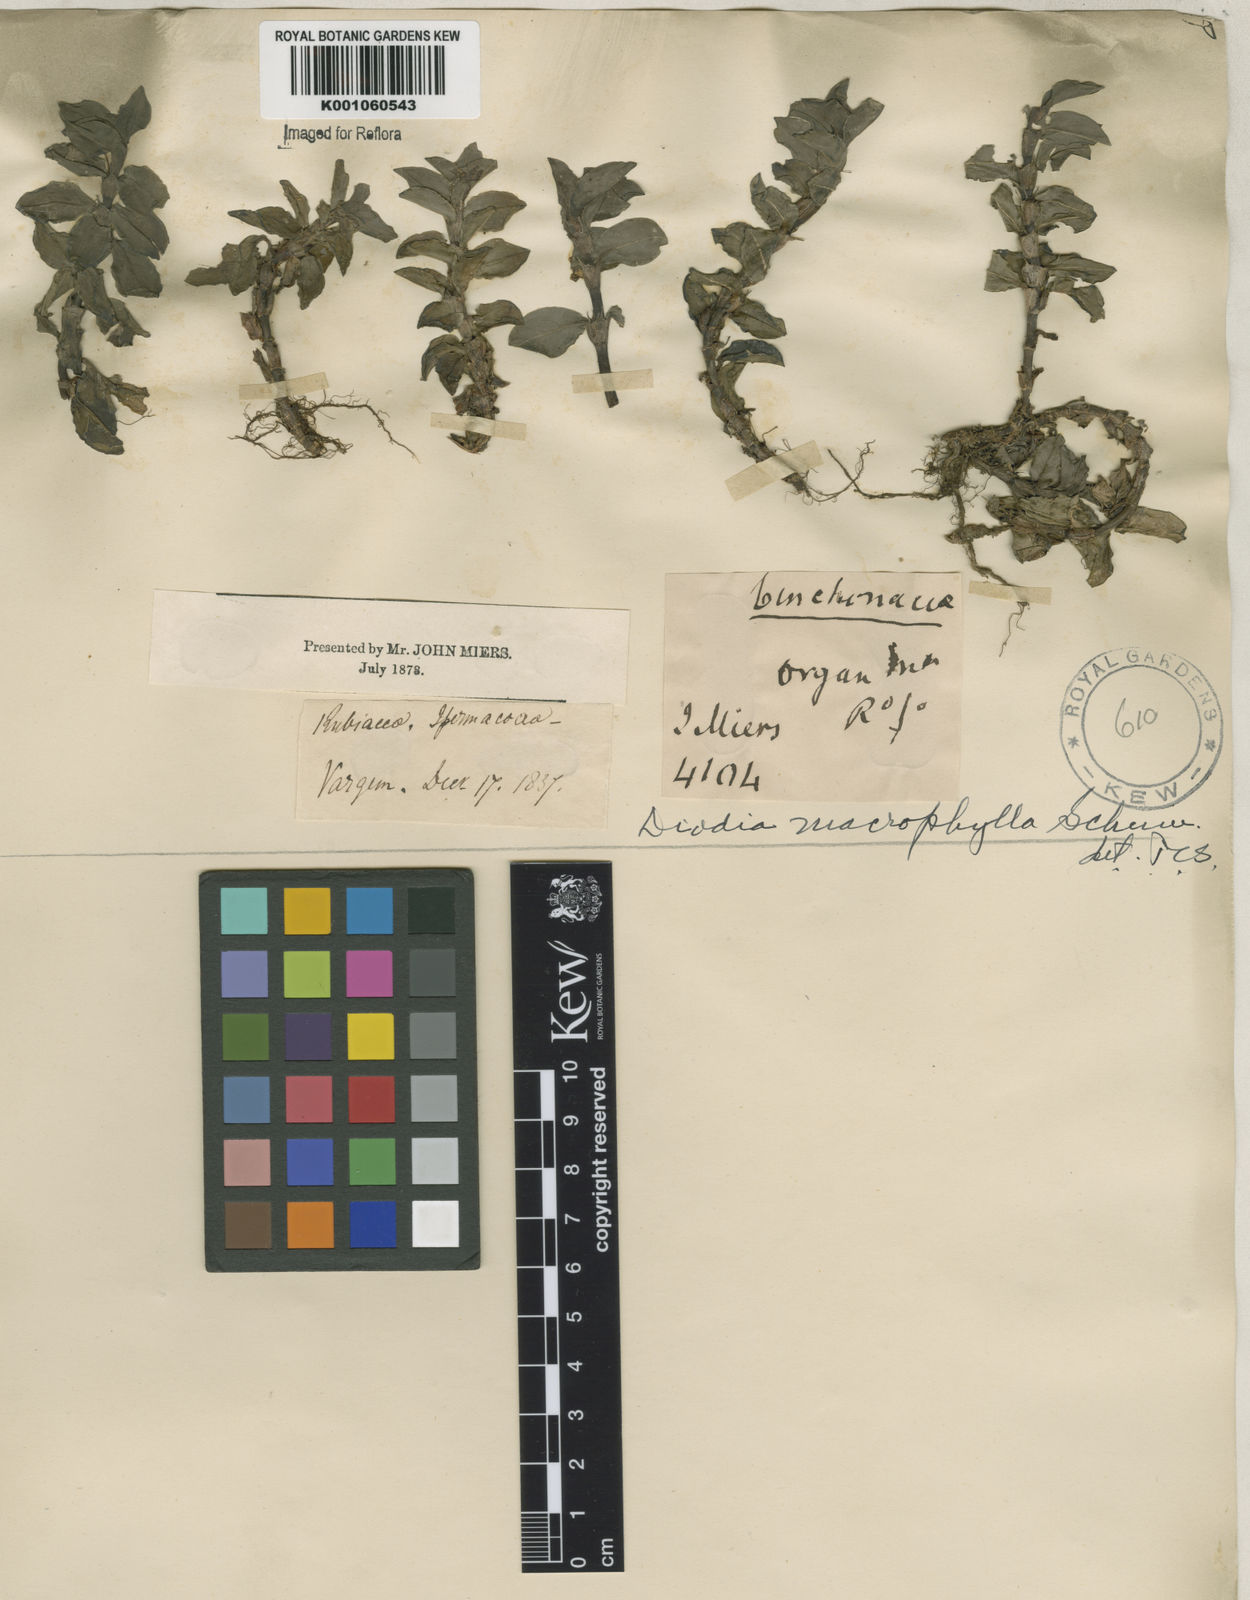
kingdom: Plantae
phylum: Tracheophyta
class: Magnoliopsida
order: Gentianales
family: Rubiaceae
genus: Diodia
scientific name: Diodia macrophylla
